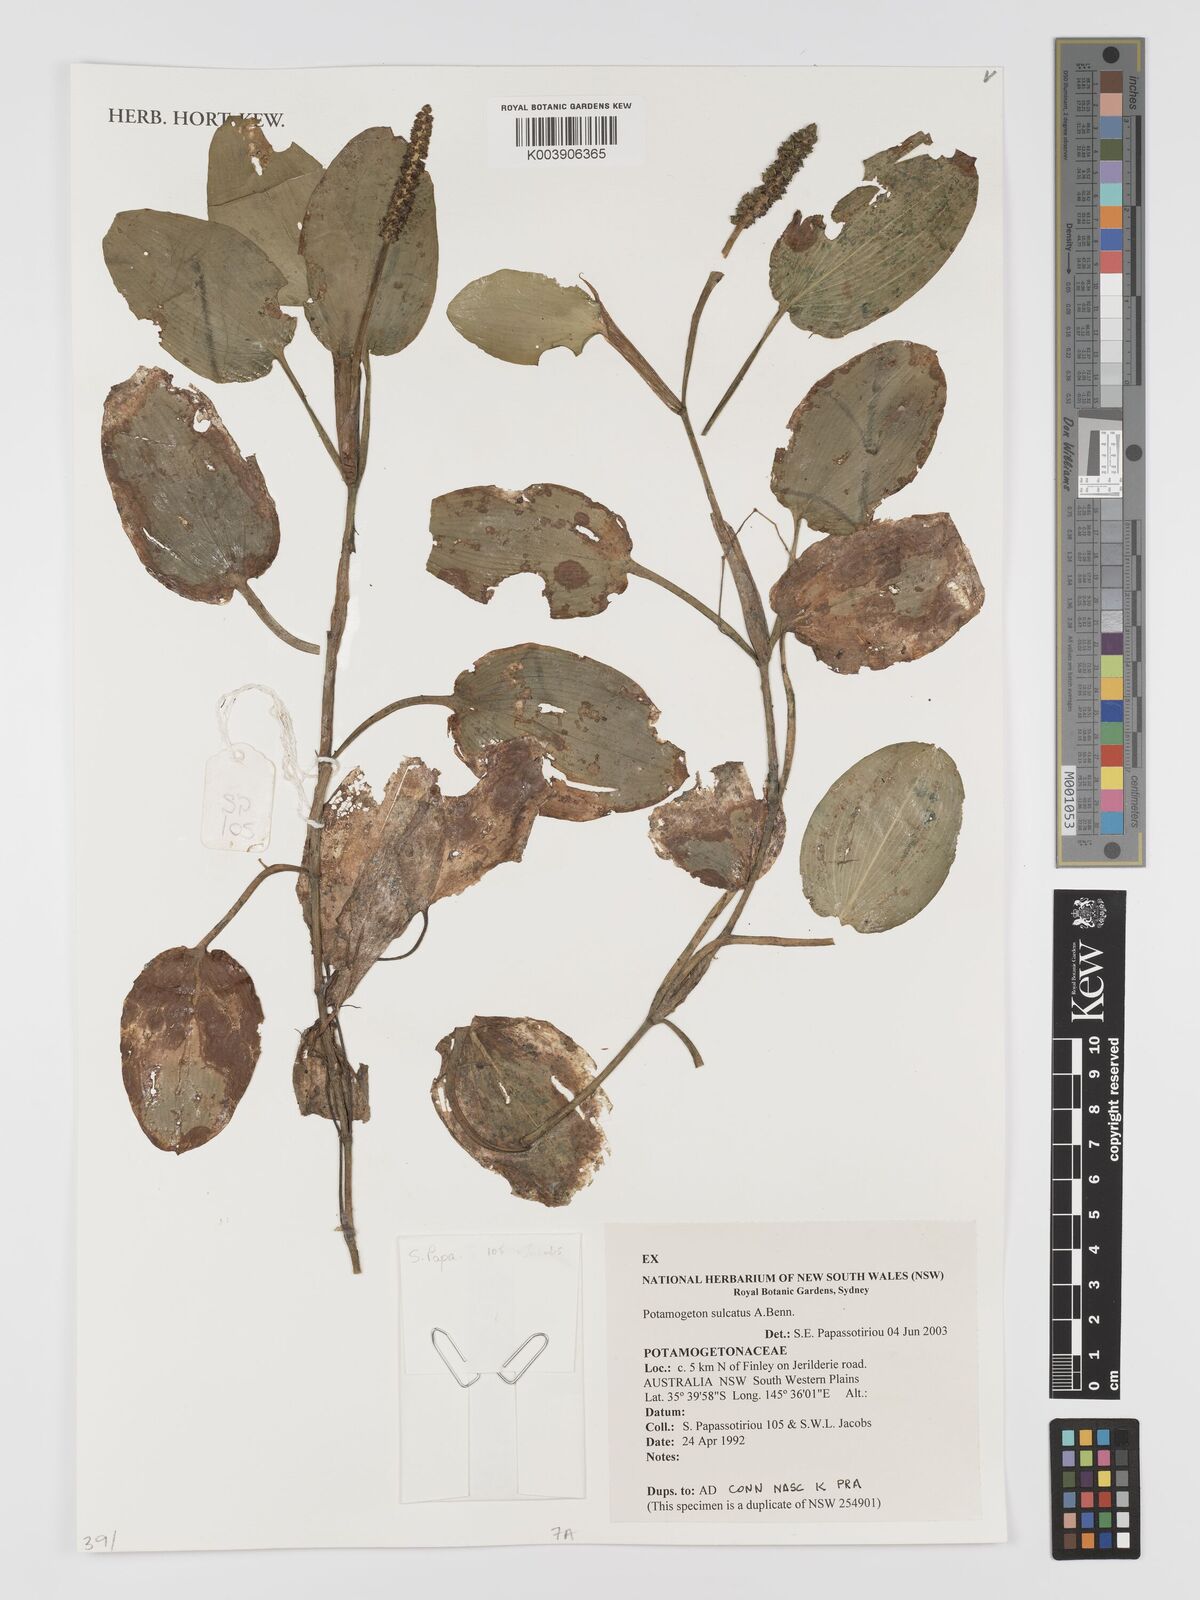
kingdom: Plantae
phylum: Tracheophyta
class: Liliopsida
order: Alismatales
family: Potamogetonaceae
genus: Potamogeton
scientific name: Potamogeton sulcatus
